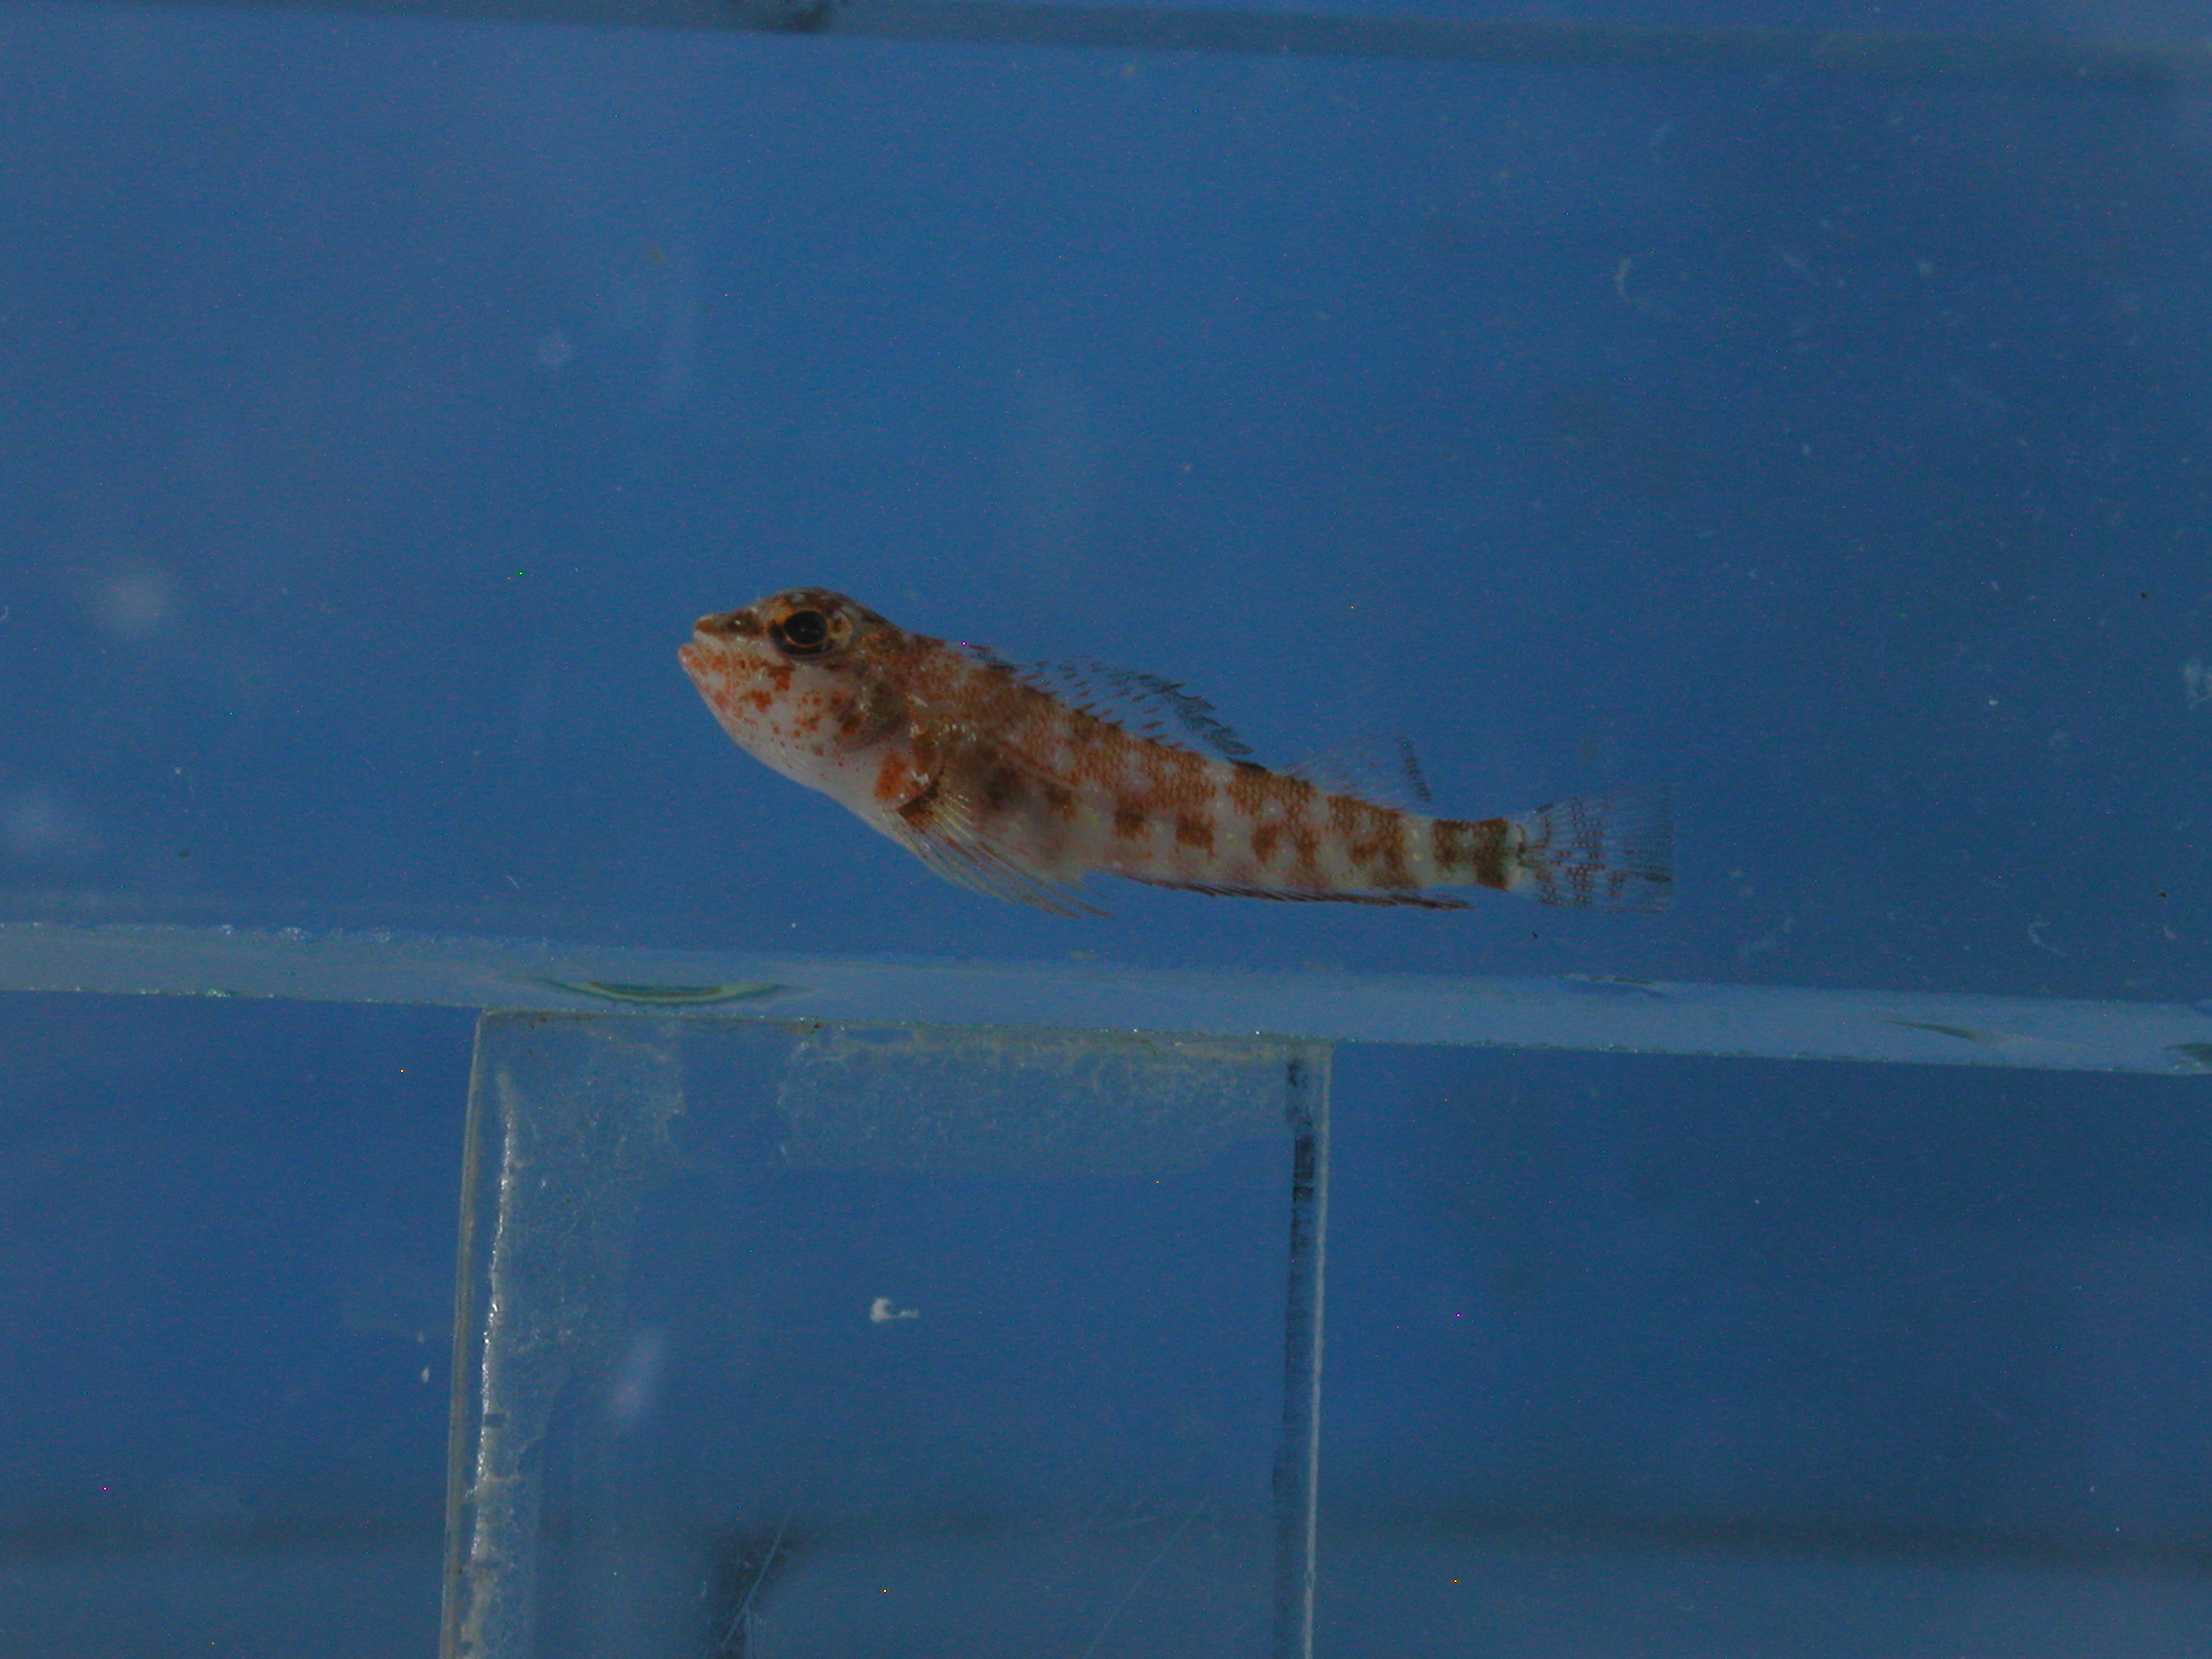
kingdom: Animalia
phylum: Chordata
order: Perciformes
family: Tripterygiidae
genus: Helcogramma
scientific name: Helcogramma fuscopinna
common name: Blackfin triplefin
